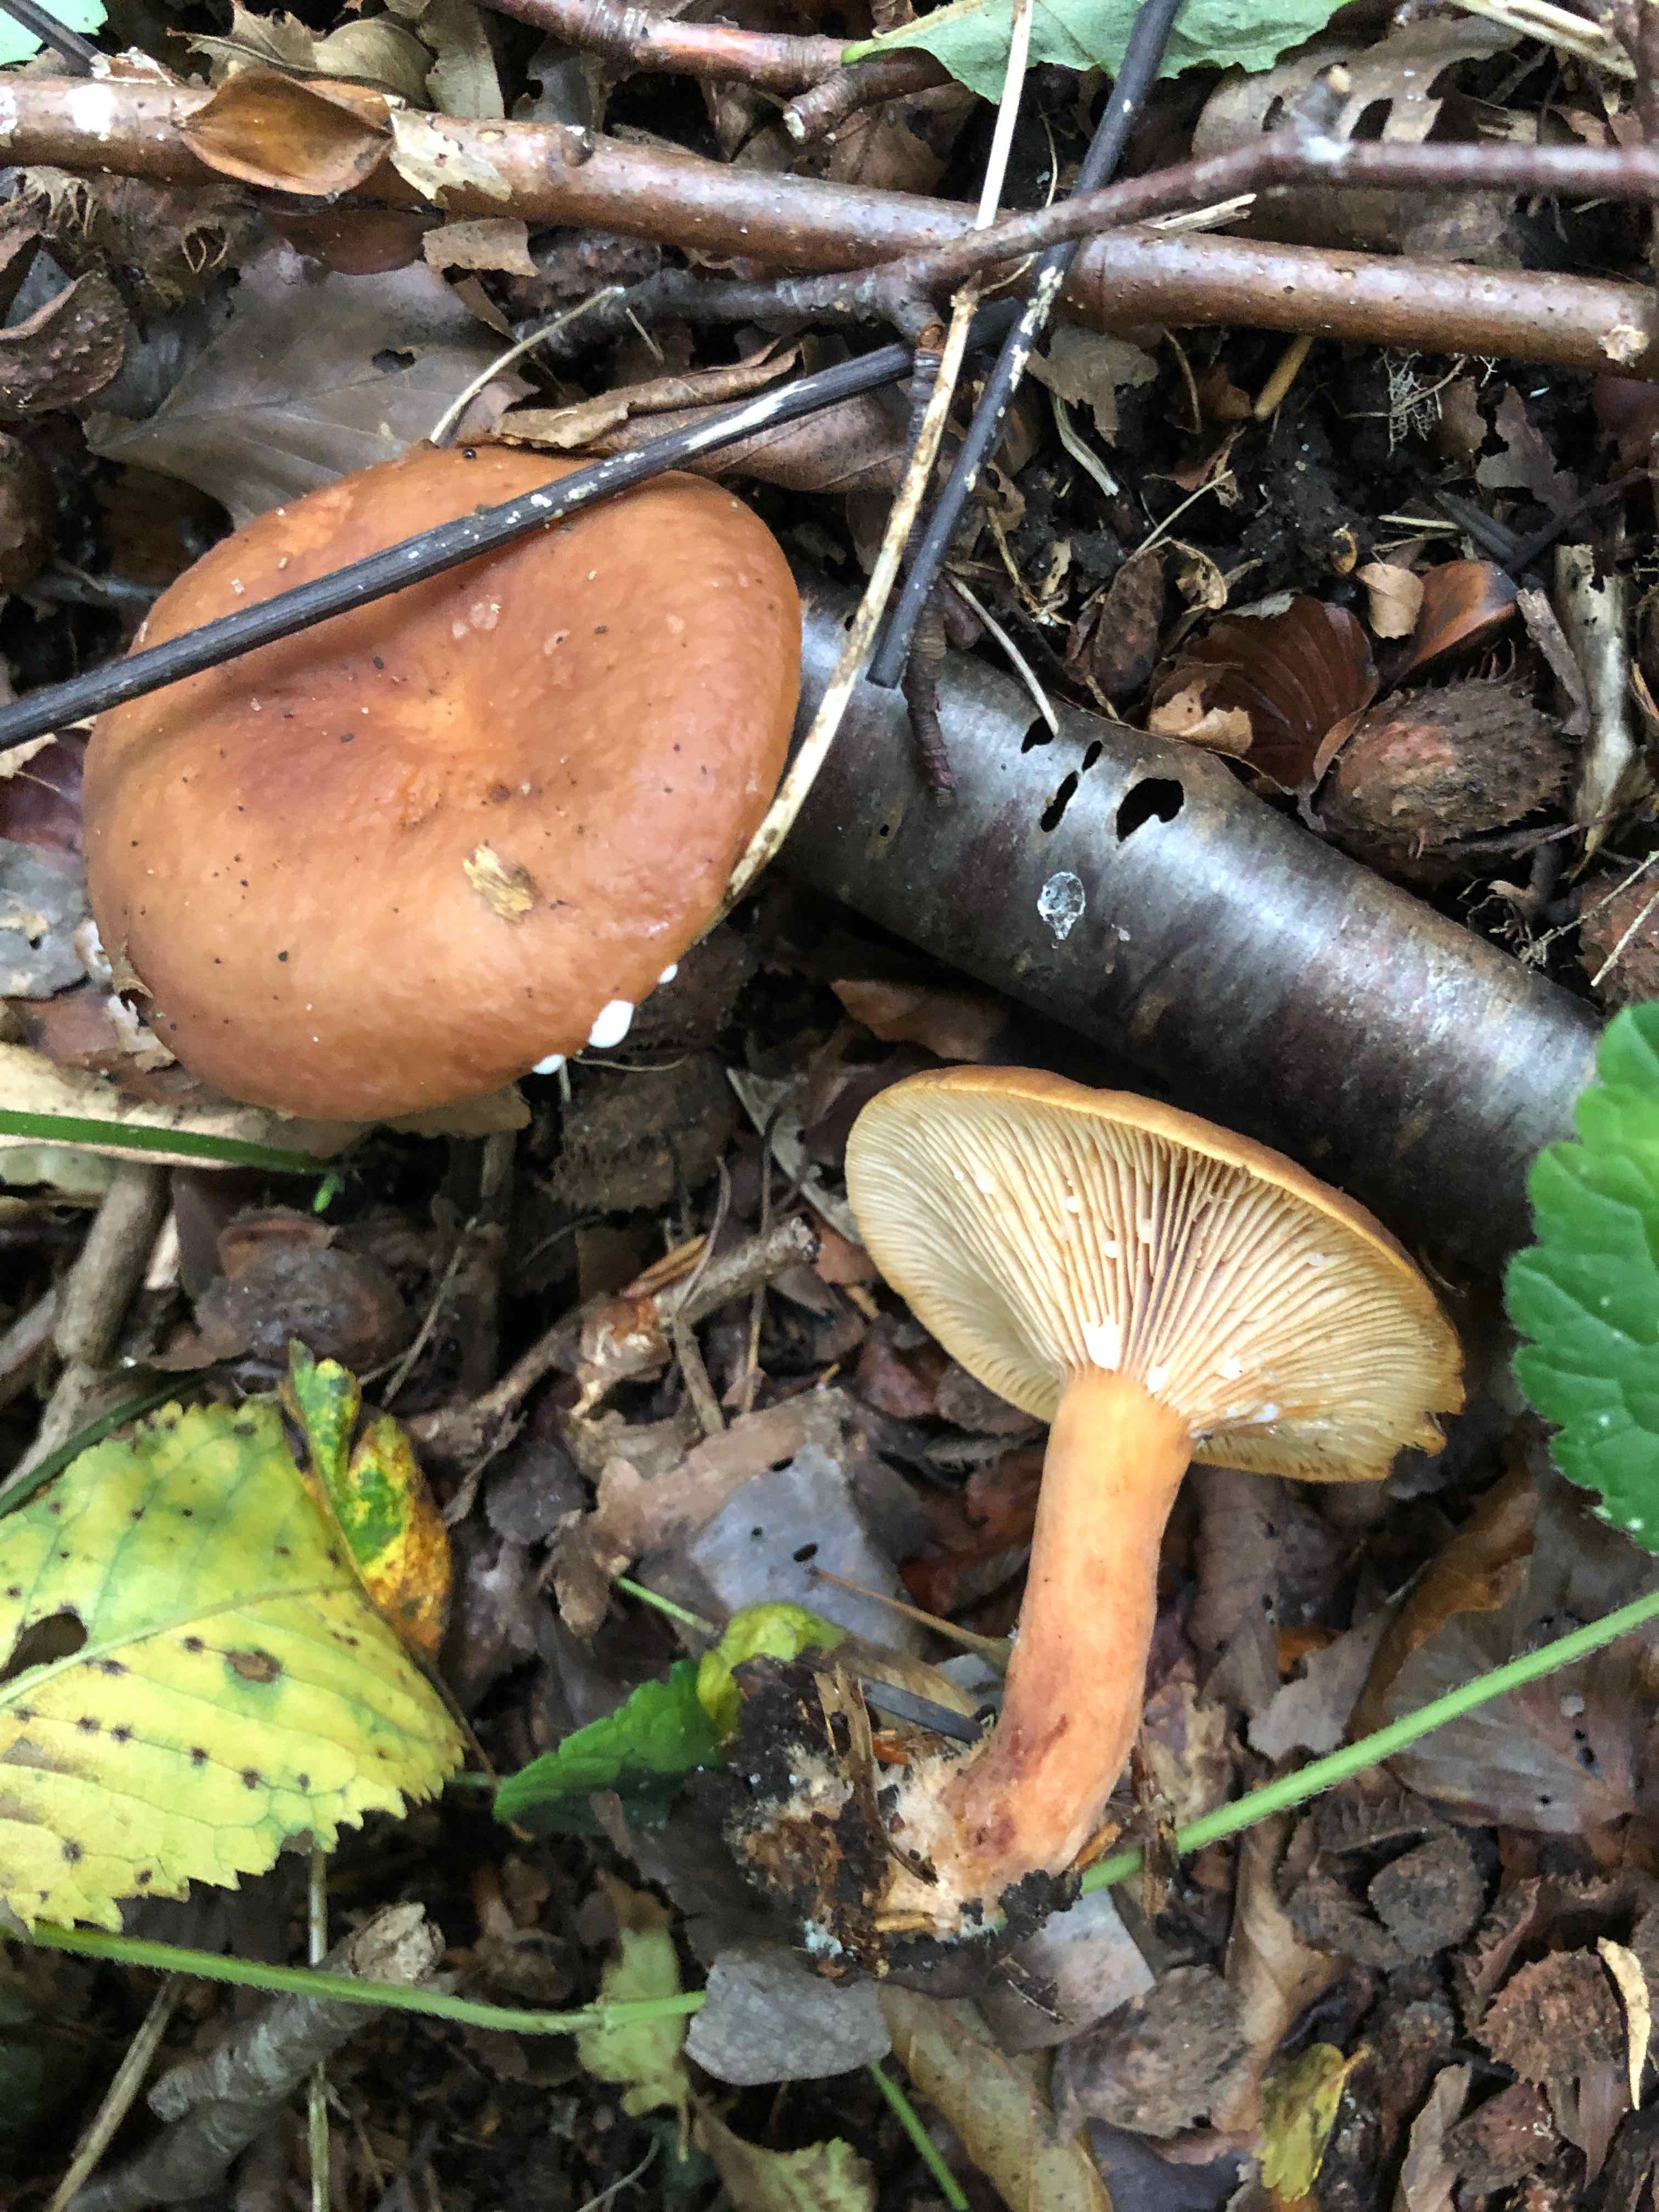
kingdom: Fungi
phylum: Basidiomycota
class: Agaricomycetes
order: Russulales
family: Russulaceae
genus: Lactarius
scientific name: Lactarius
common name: mælkehat
